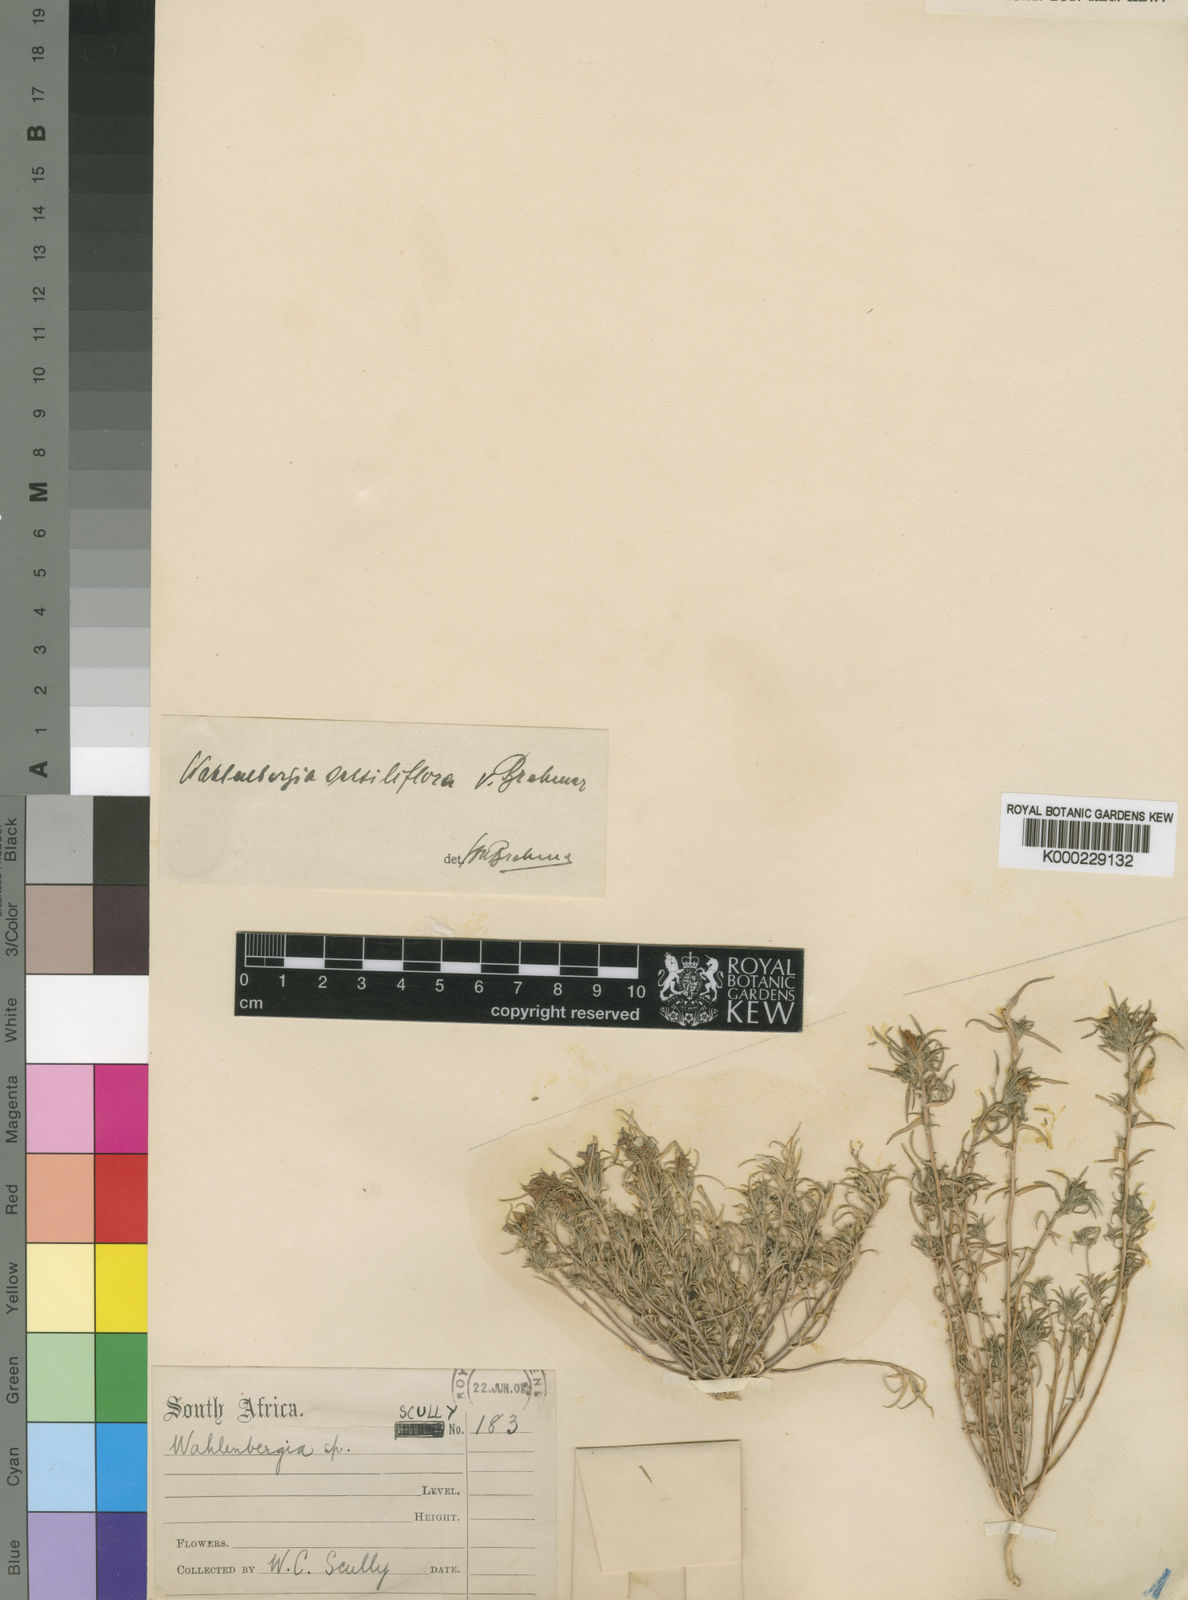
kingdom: Plantae
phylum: Tracheophyta
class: Magnoliopsida
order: Asterales
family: Campanulaceae
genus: Wahlenbergia
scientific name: Wahlenbergia sessiliflora
